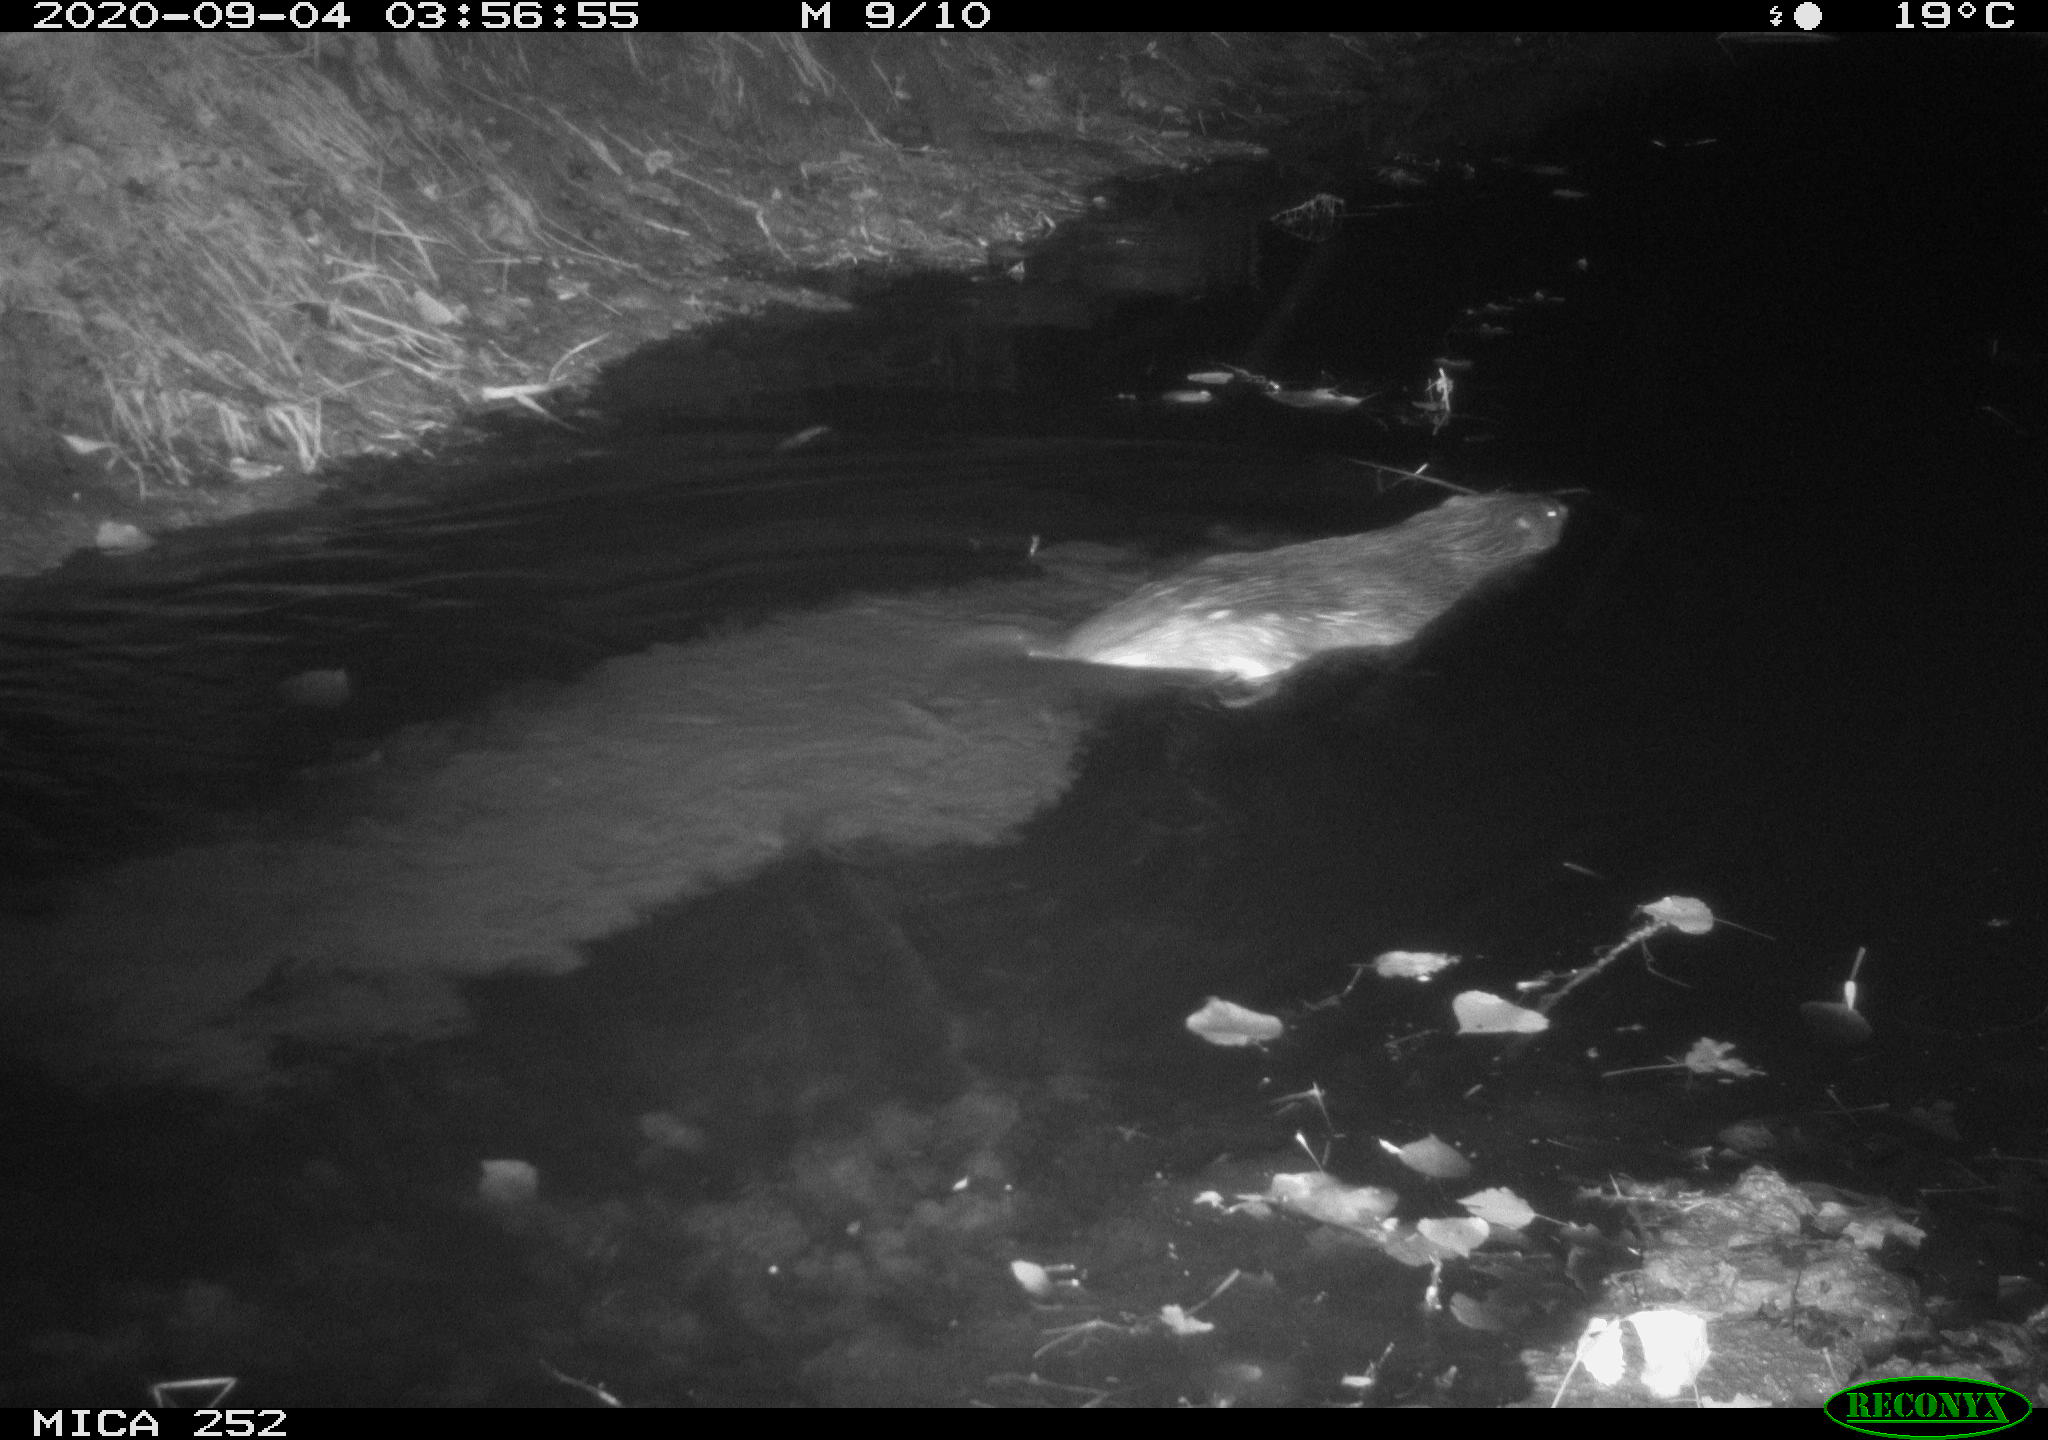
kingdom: Animalia
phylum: Chordata
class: Mammalia
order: Rodentia
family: Castoridae
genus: Castor
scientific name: Castor fiber
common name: Eurasian beaver
